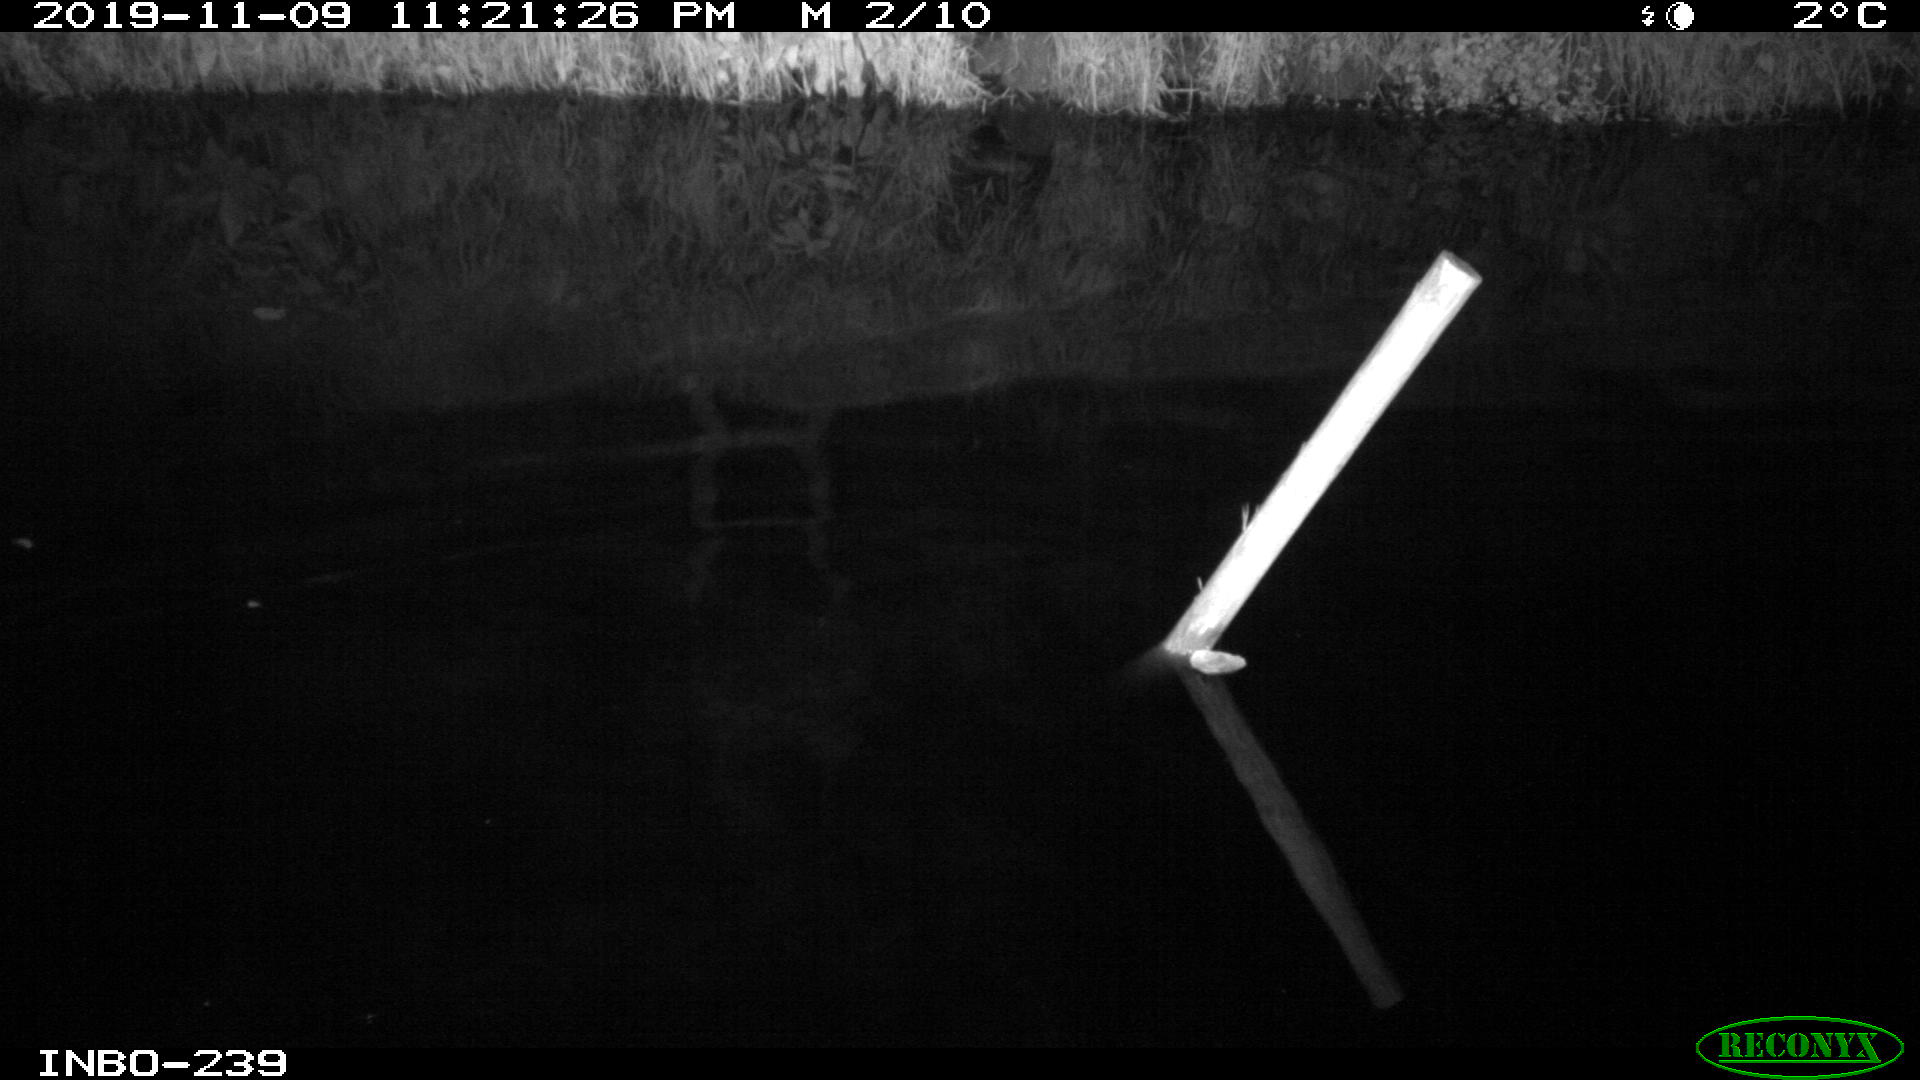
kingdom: Animalia
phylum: Chordata
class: Aves
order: Anseriformes
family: Anatidae
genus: Anas
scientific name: Anas platyrhynchos
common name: Mallard
